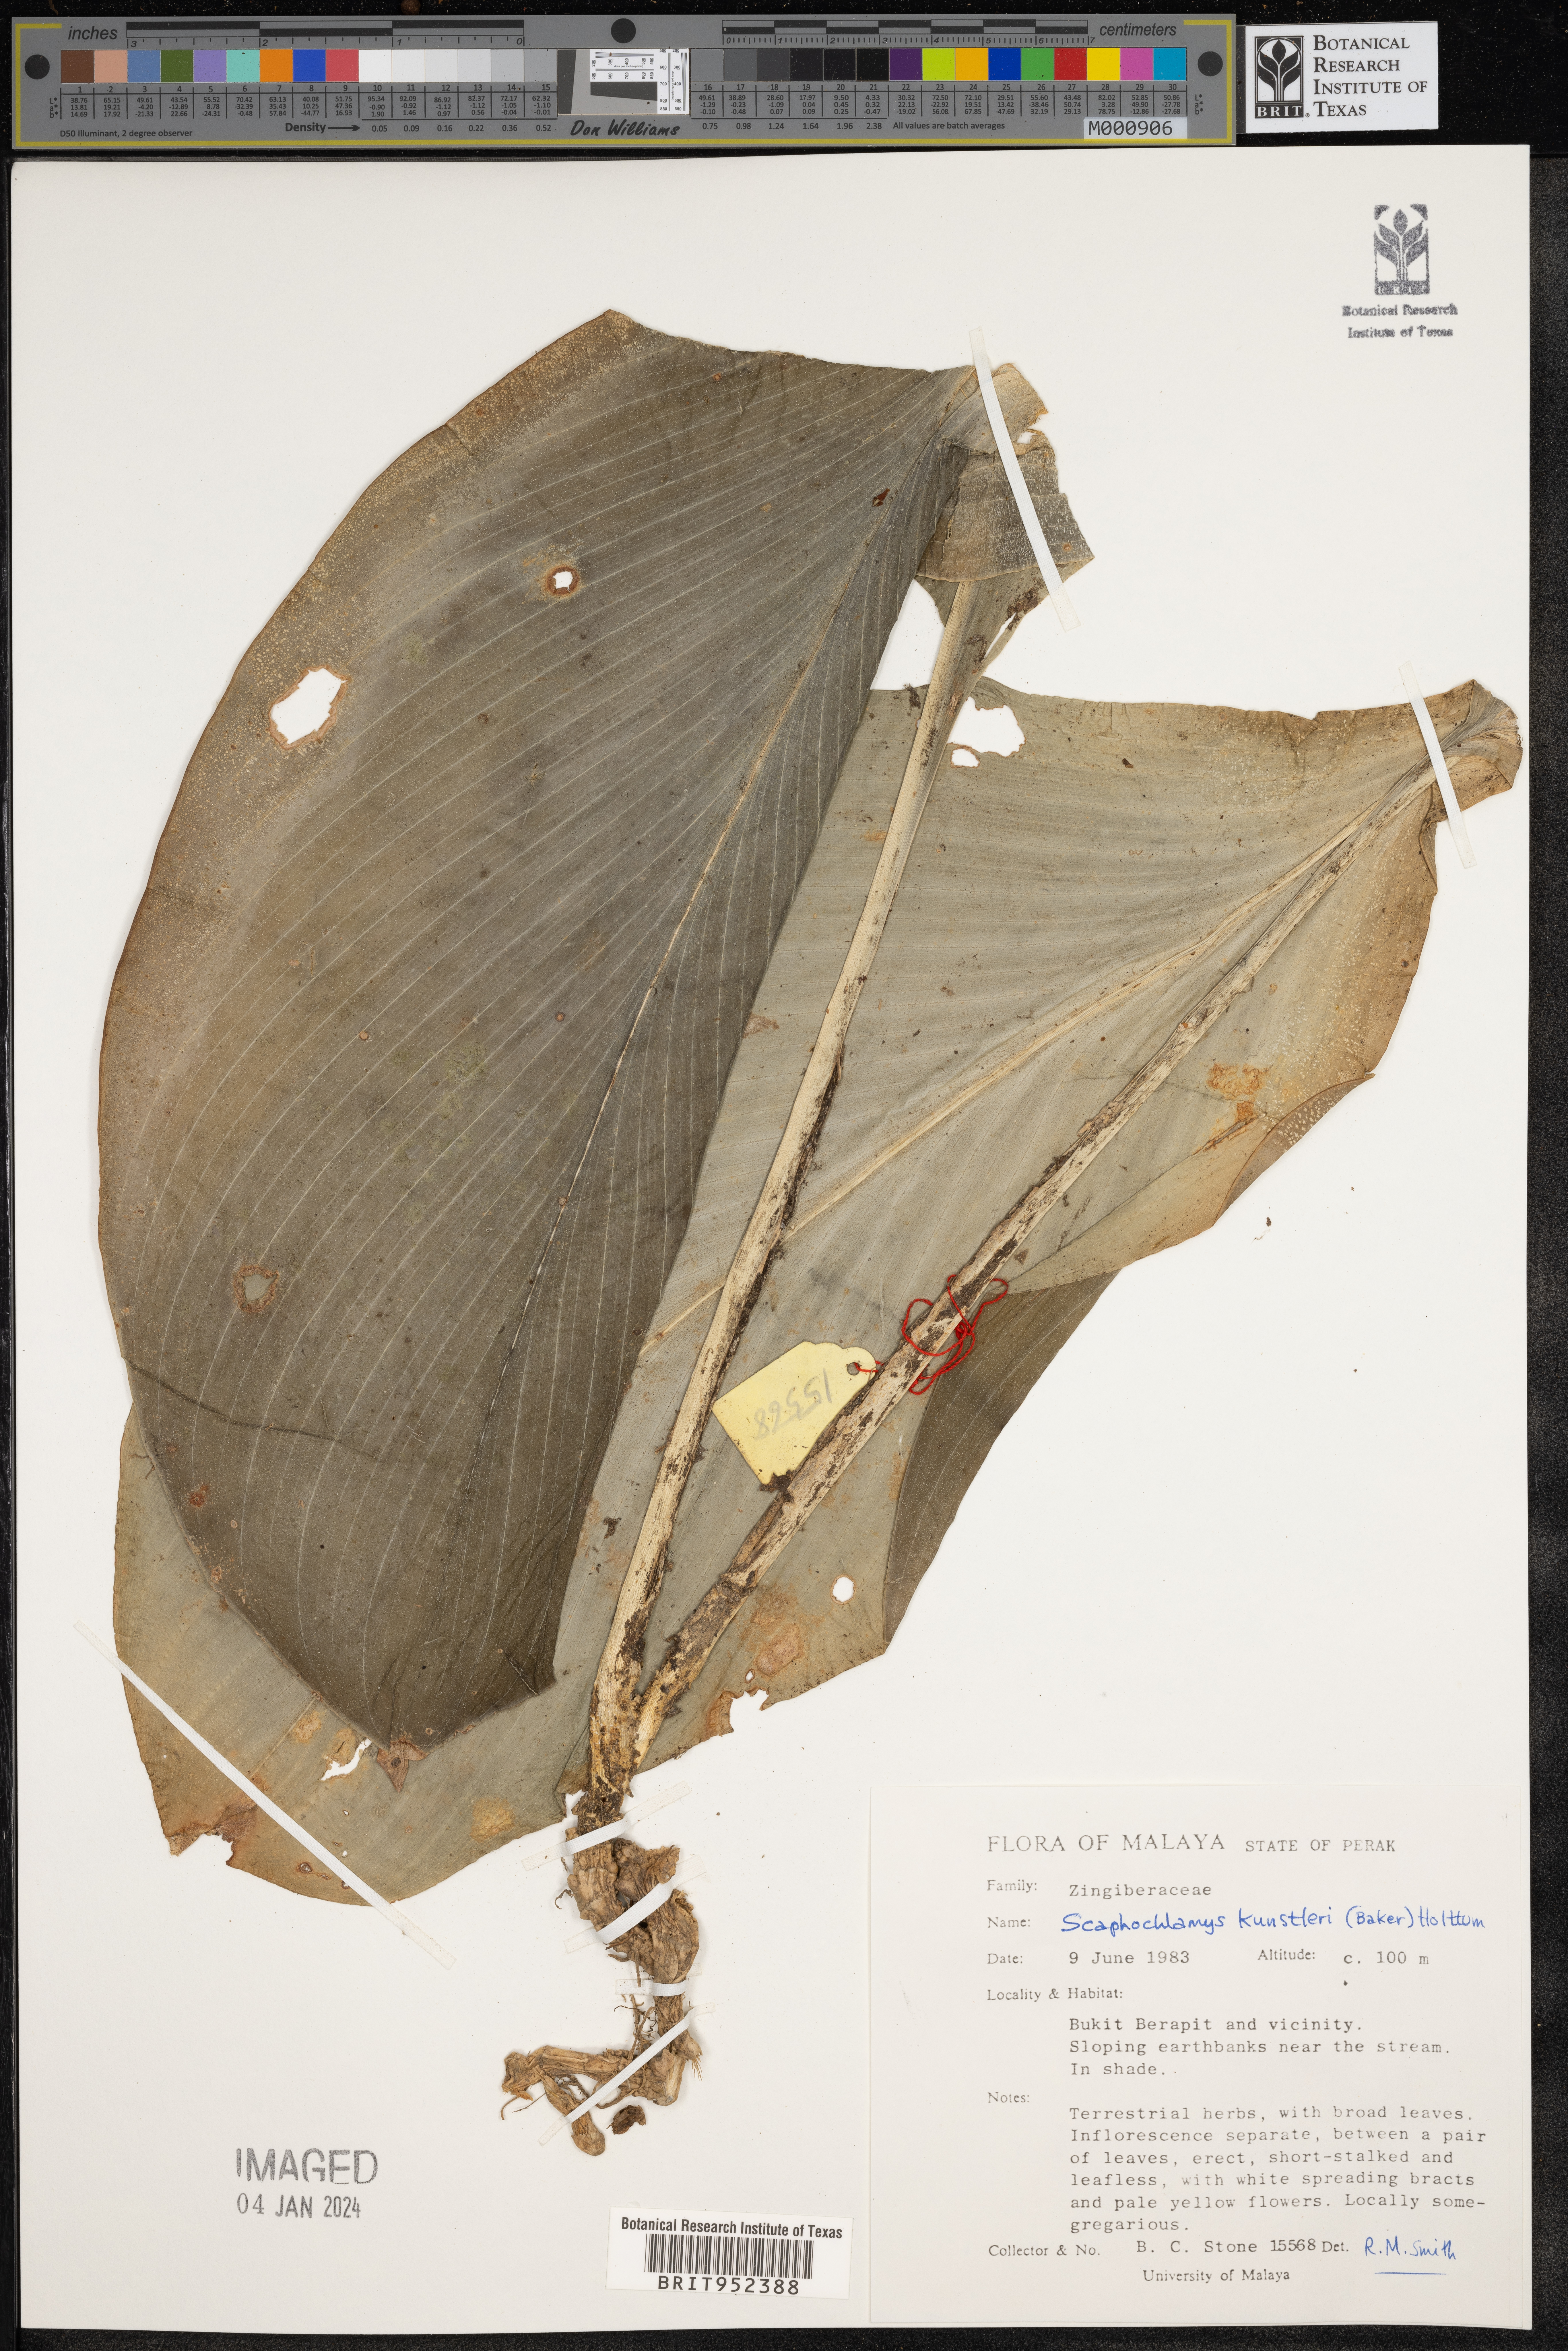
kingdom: Plantae
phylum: Tracheophyta
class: Liliopsida
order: Zingiberales
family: Zingiberaceae
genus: Scaphochlamys
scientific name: Scaphochlamys
